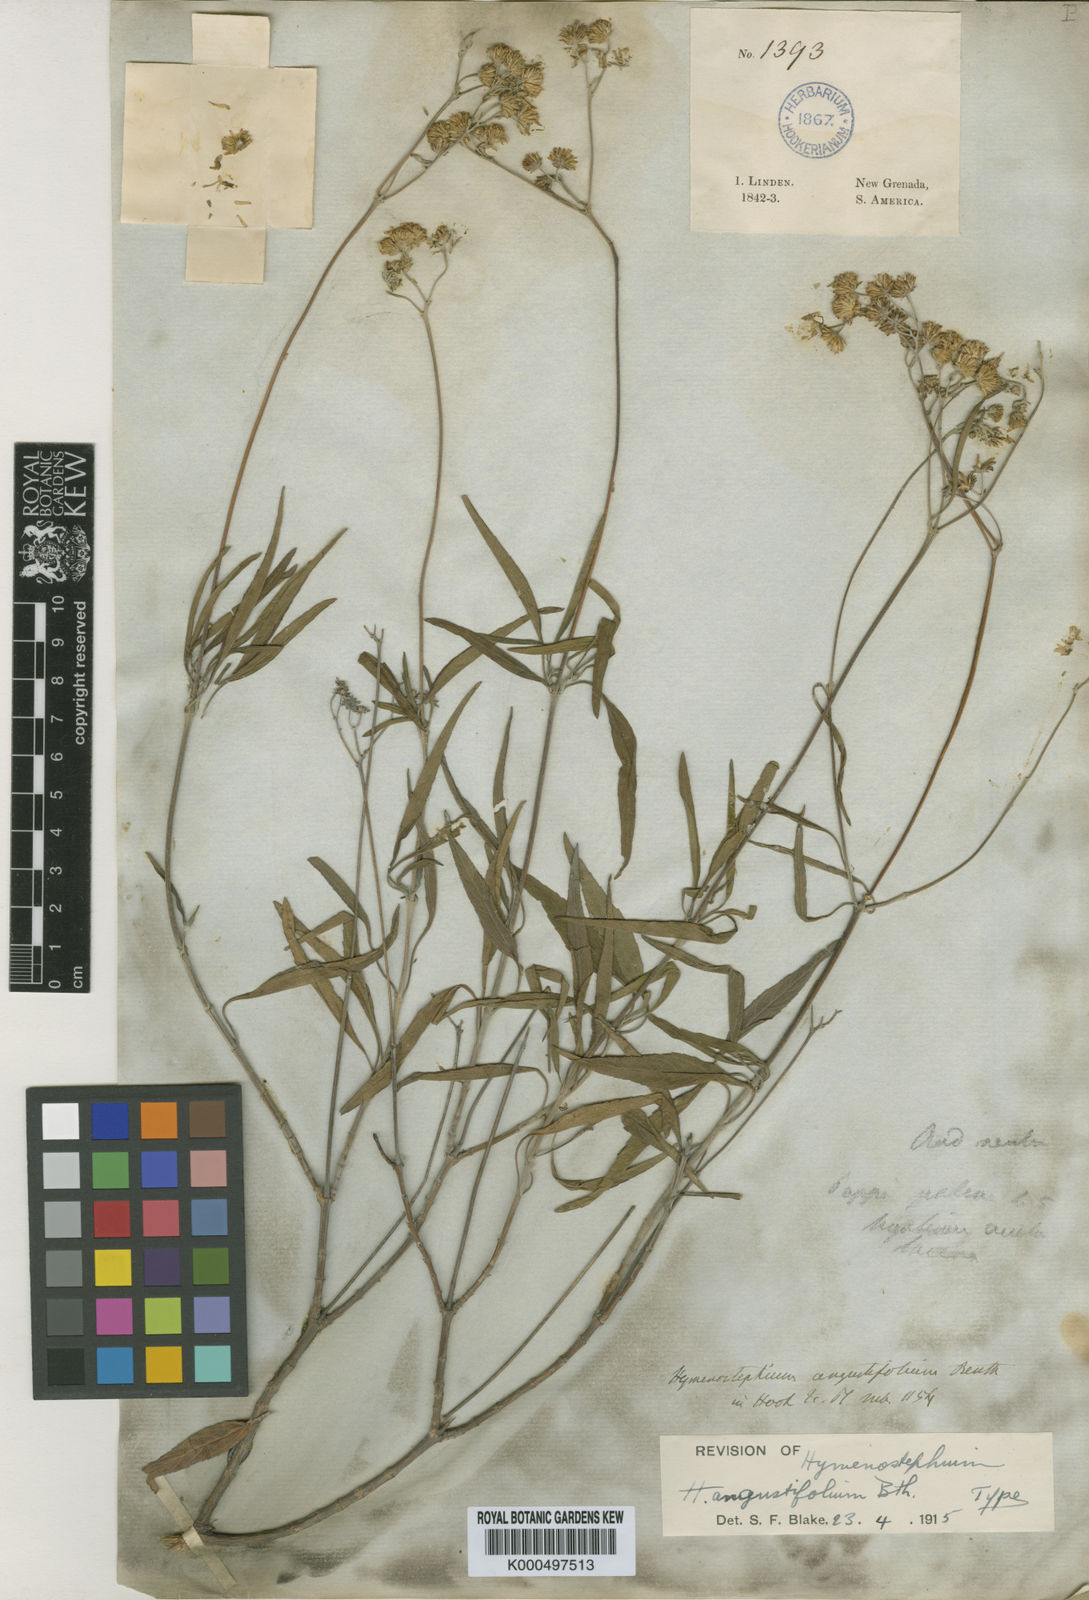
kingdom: Plantae
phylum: Tracheophyta
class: Magnoliopsida
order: Asterales
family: Asteraceae
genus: Hymenostephium
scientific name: Hymenostephium viride
